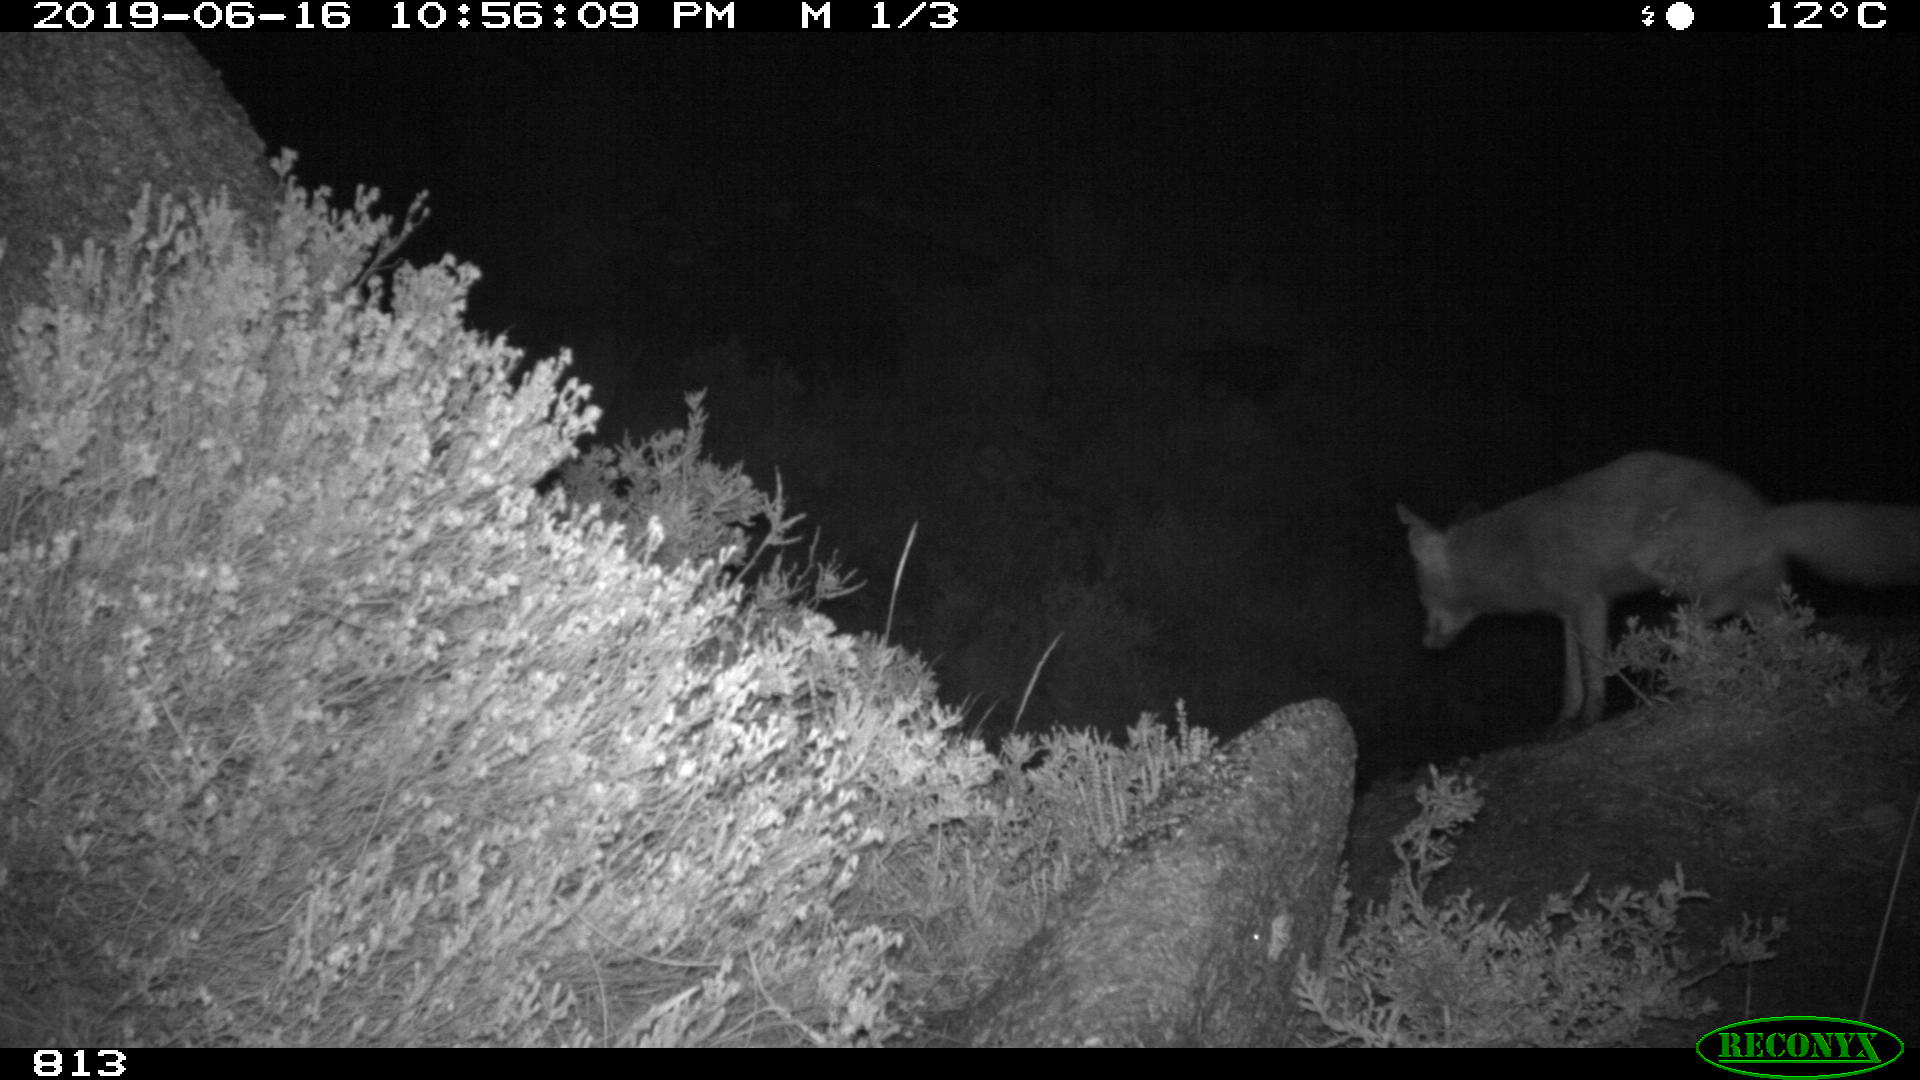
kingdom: Animalia
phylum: Chordata
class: Mammalia
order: Carnivora
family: Canidae
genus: Vulpes
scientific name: Vulpes vulpes
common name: Red fox
